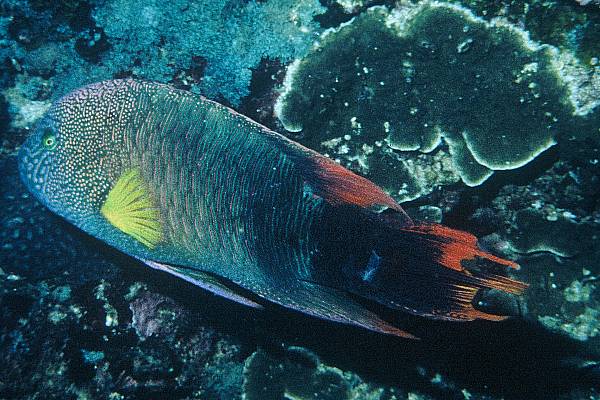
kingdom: Animalia
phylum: Chordata
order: Perciformes
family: Labridae
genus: Cheilinus
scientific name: Cheilinus trilobatus
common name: Tripletail maori wrasse
